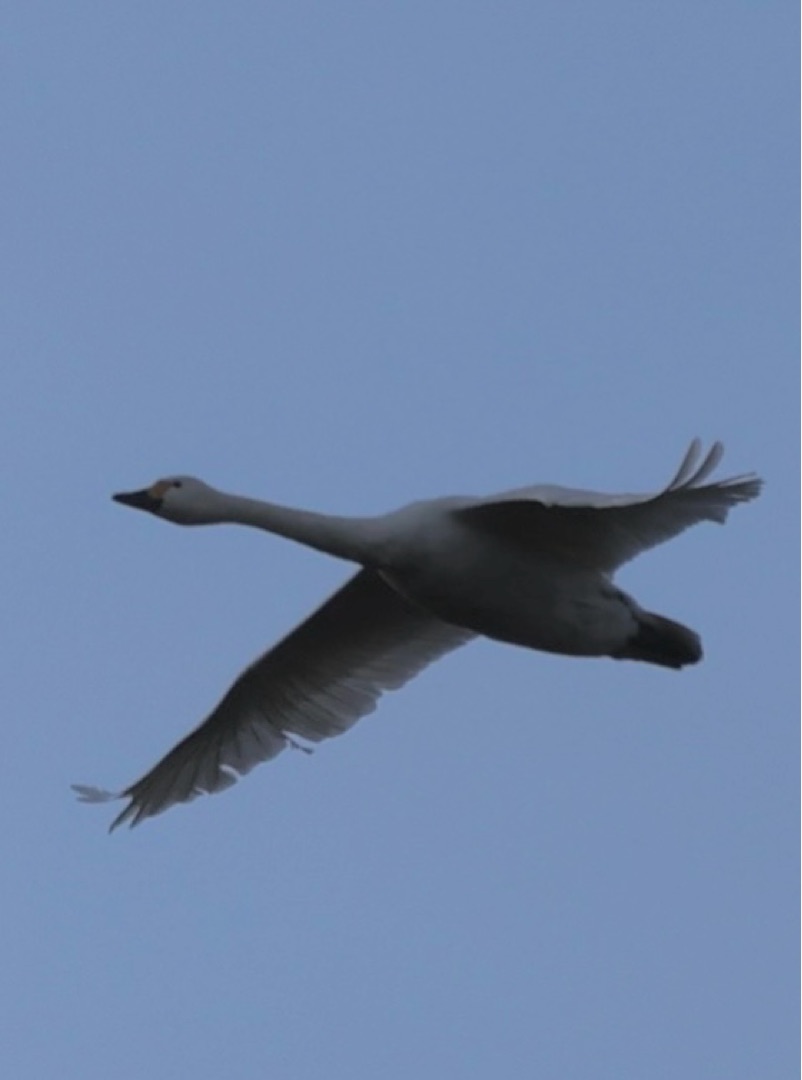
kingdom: Animalia
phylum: Chordata
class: Aves
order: Anseriformes
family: Anatidae
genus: Cygnus
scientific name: Cygnus columbianus
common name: Pibesvane
